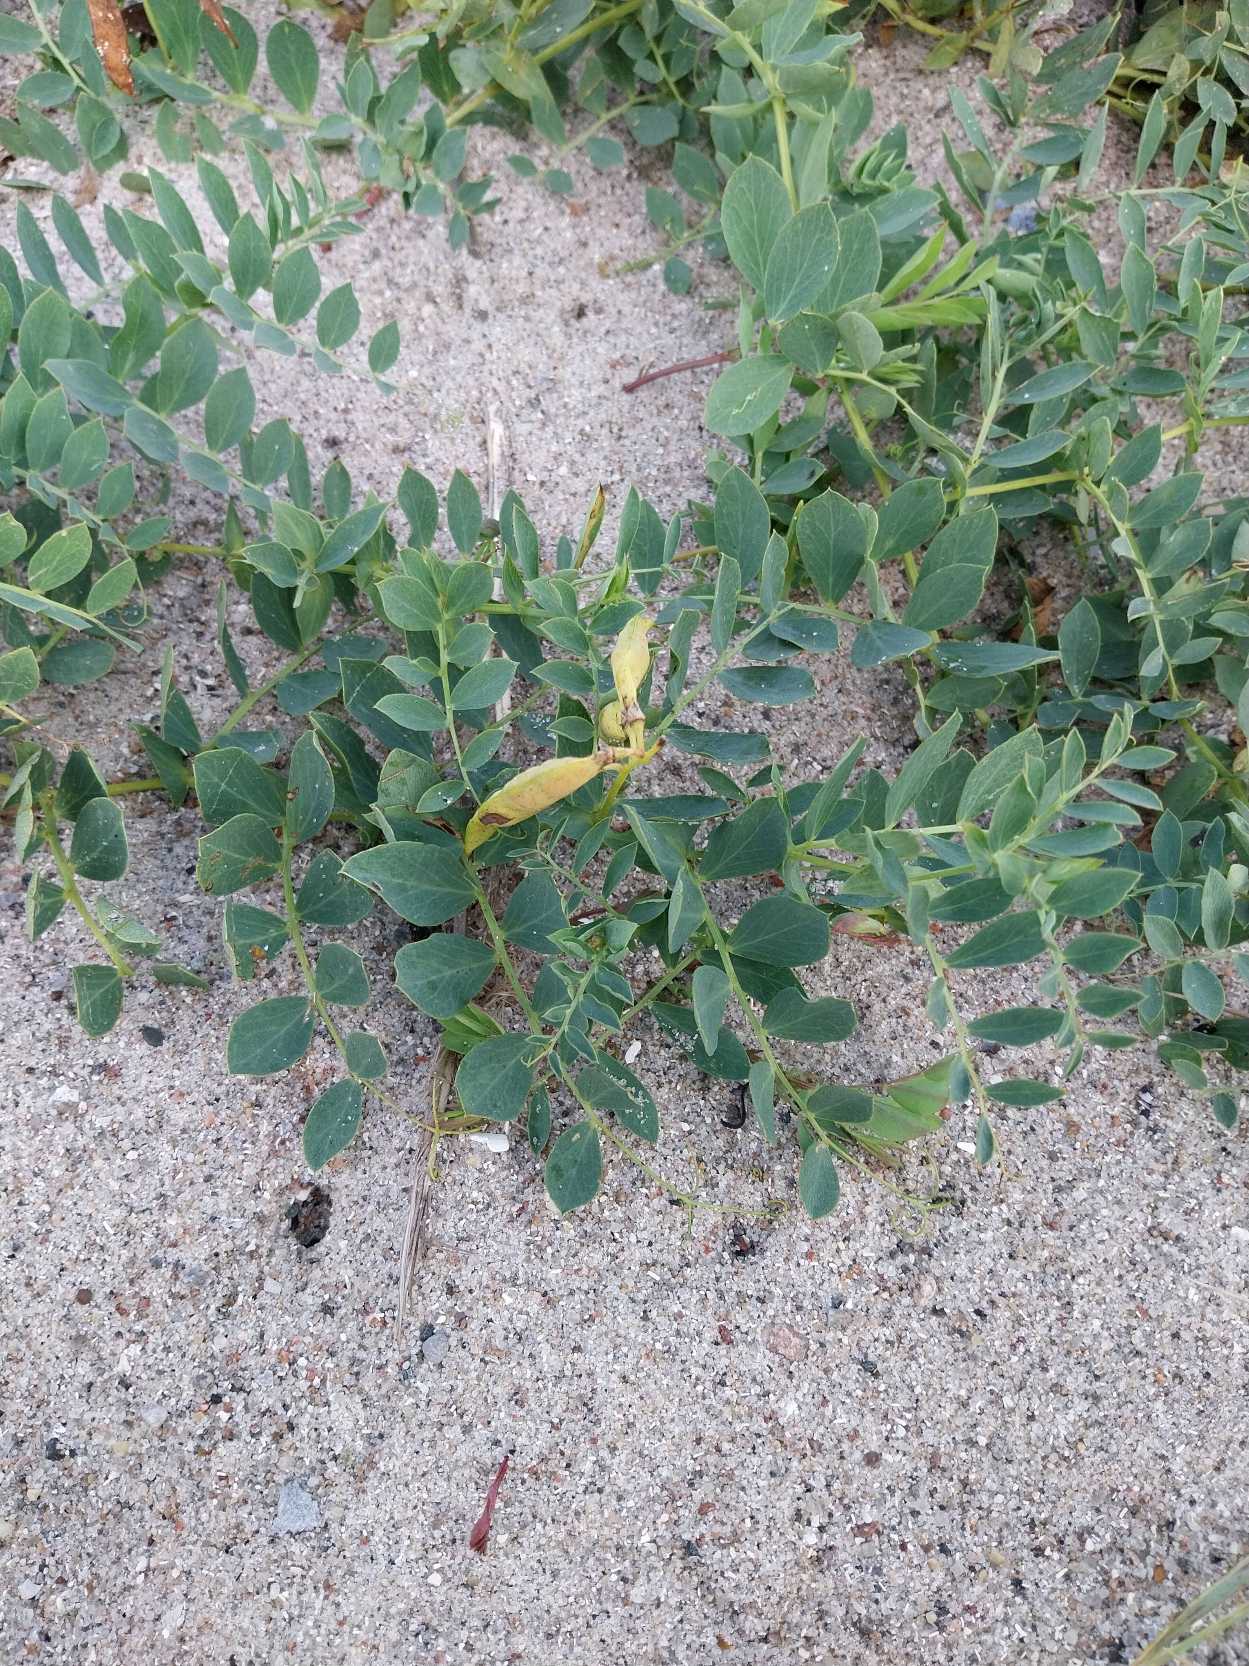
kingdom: Plantae
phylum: Tracheophyta
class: Magnoliopsida
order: Fabales
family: Fabaceae
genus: Lathyrus
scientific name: Lathyrus japonicus
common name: Strand-fladbælg
